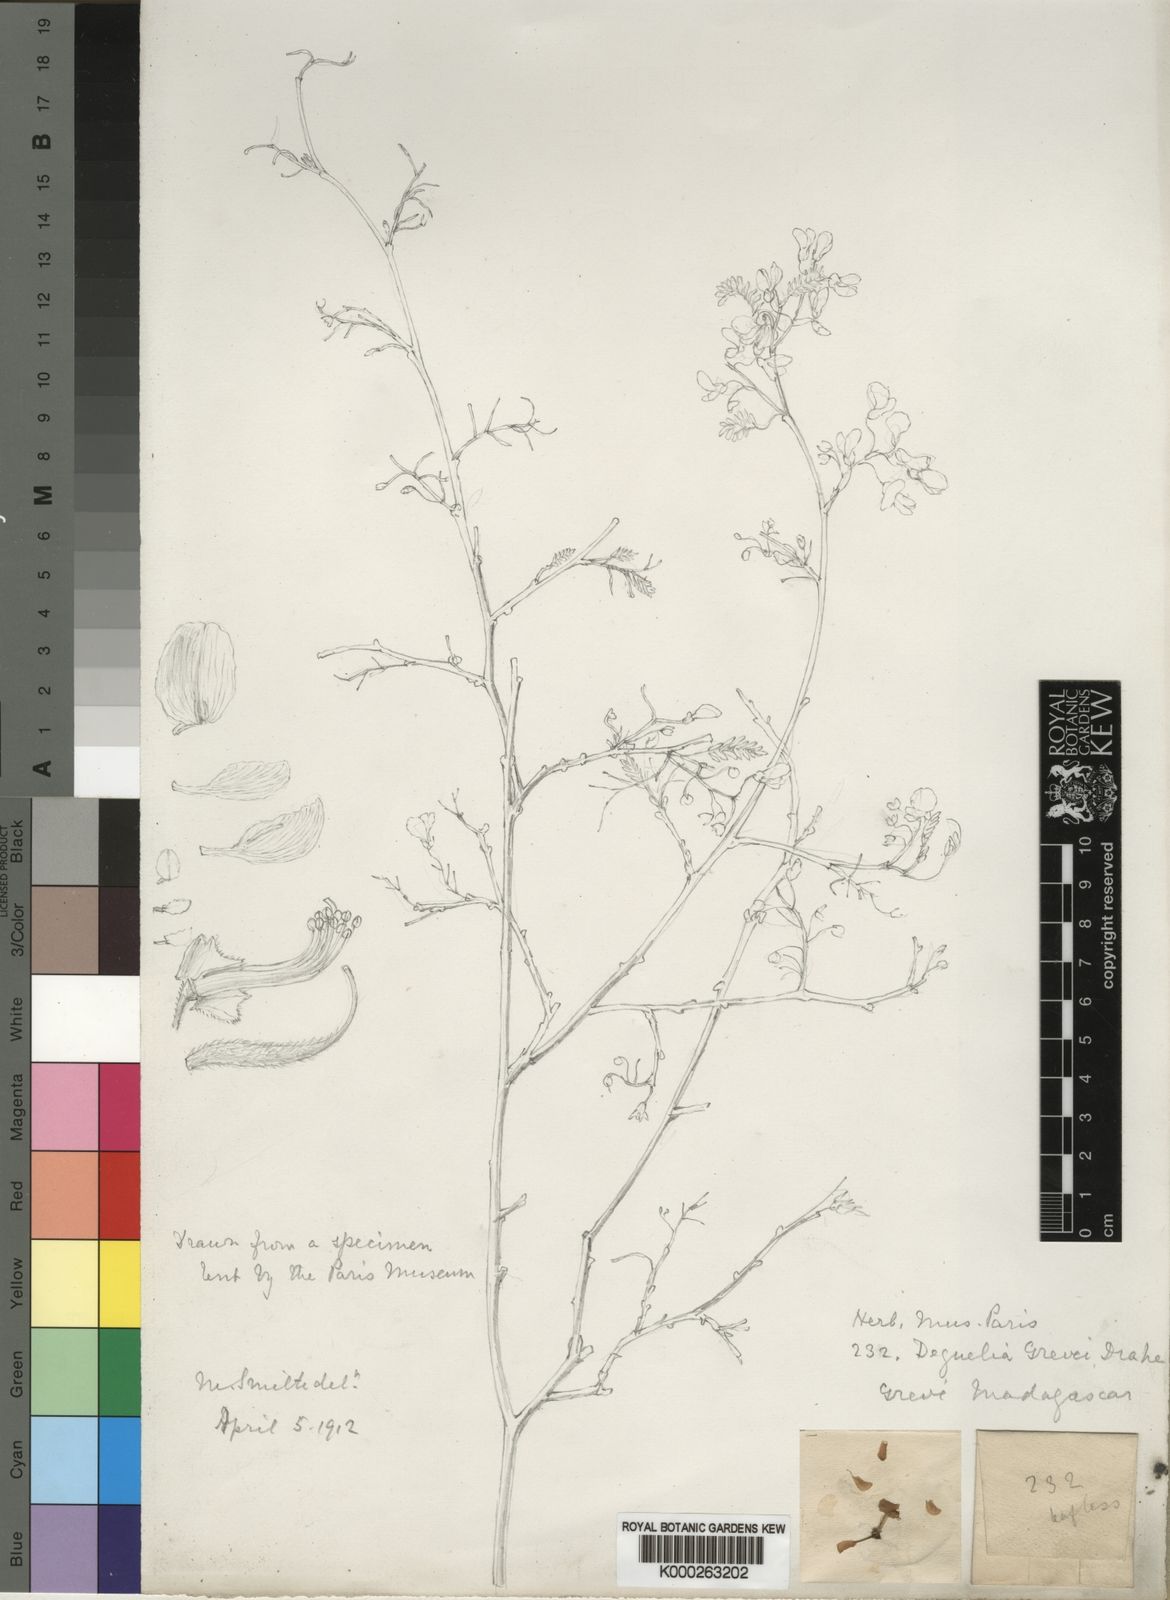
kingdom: Plantae
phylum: Tracheophyta
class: Magnoliopsida
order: Fabales
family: Fabaceae
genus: Pongamiopsis
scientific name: Pongamiopsis pervilleana
